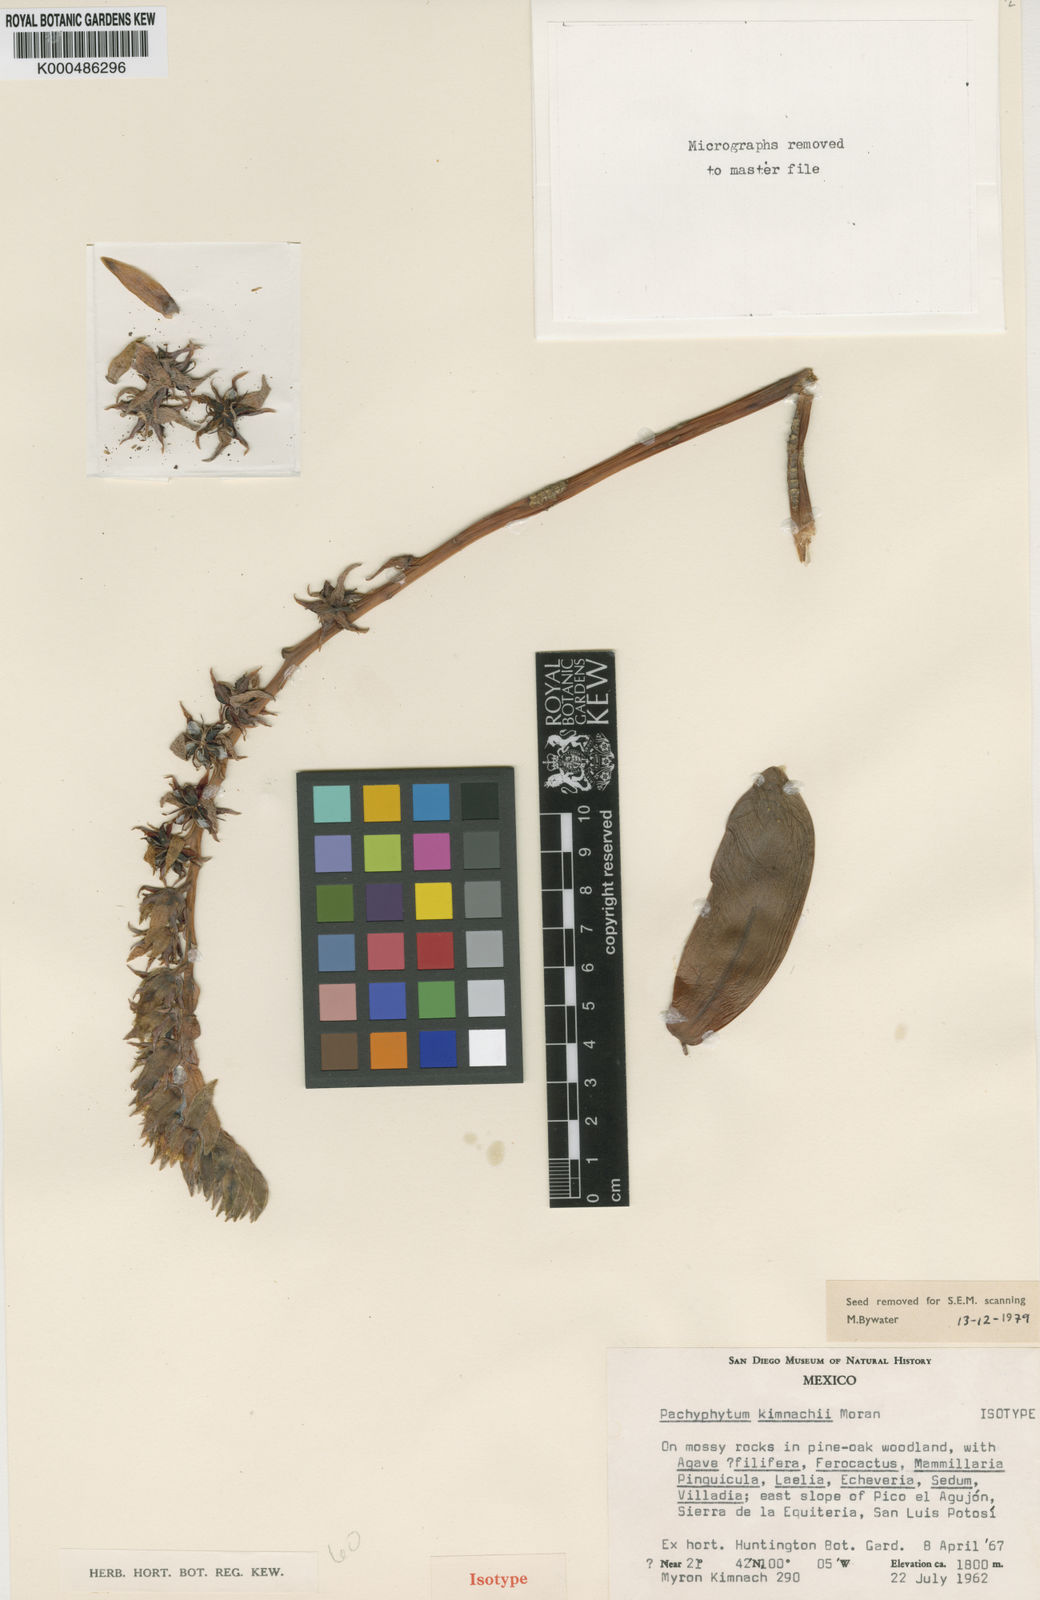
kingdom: Plantae
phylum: Tracheophyta
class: Magnoliopsida
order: Saxifragales
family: Crassulaceae
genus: Pachyphytum
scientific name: Pachyphytum kimnachii
